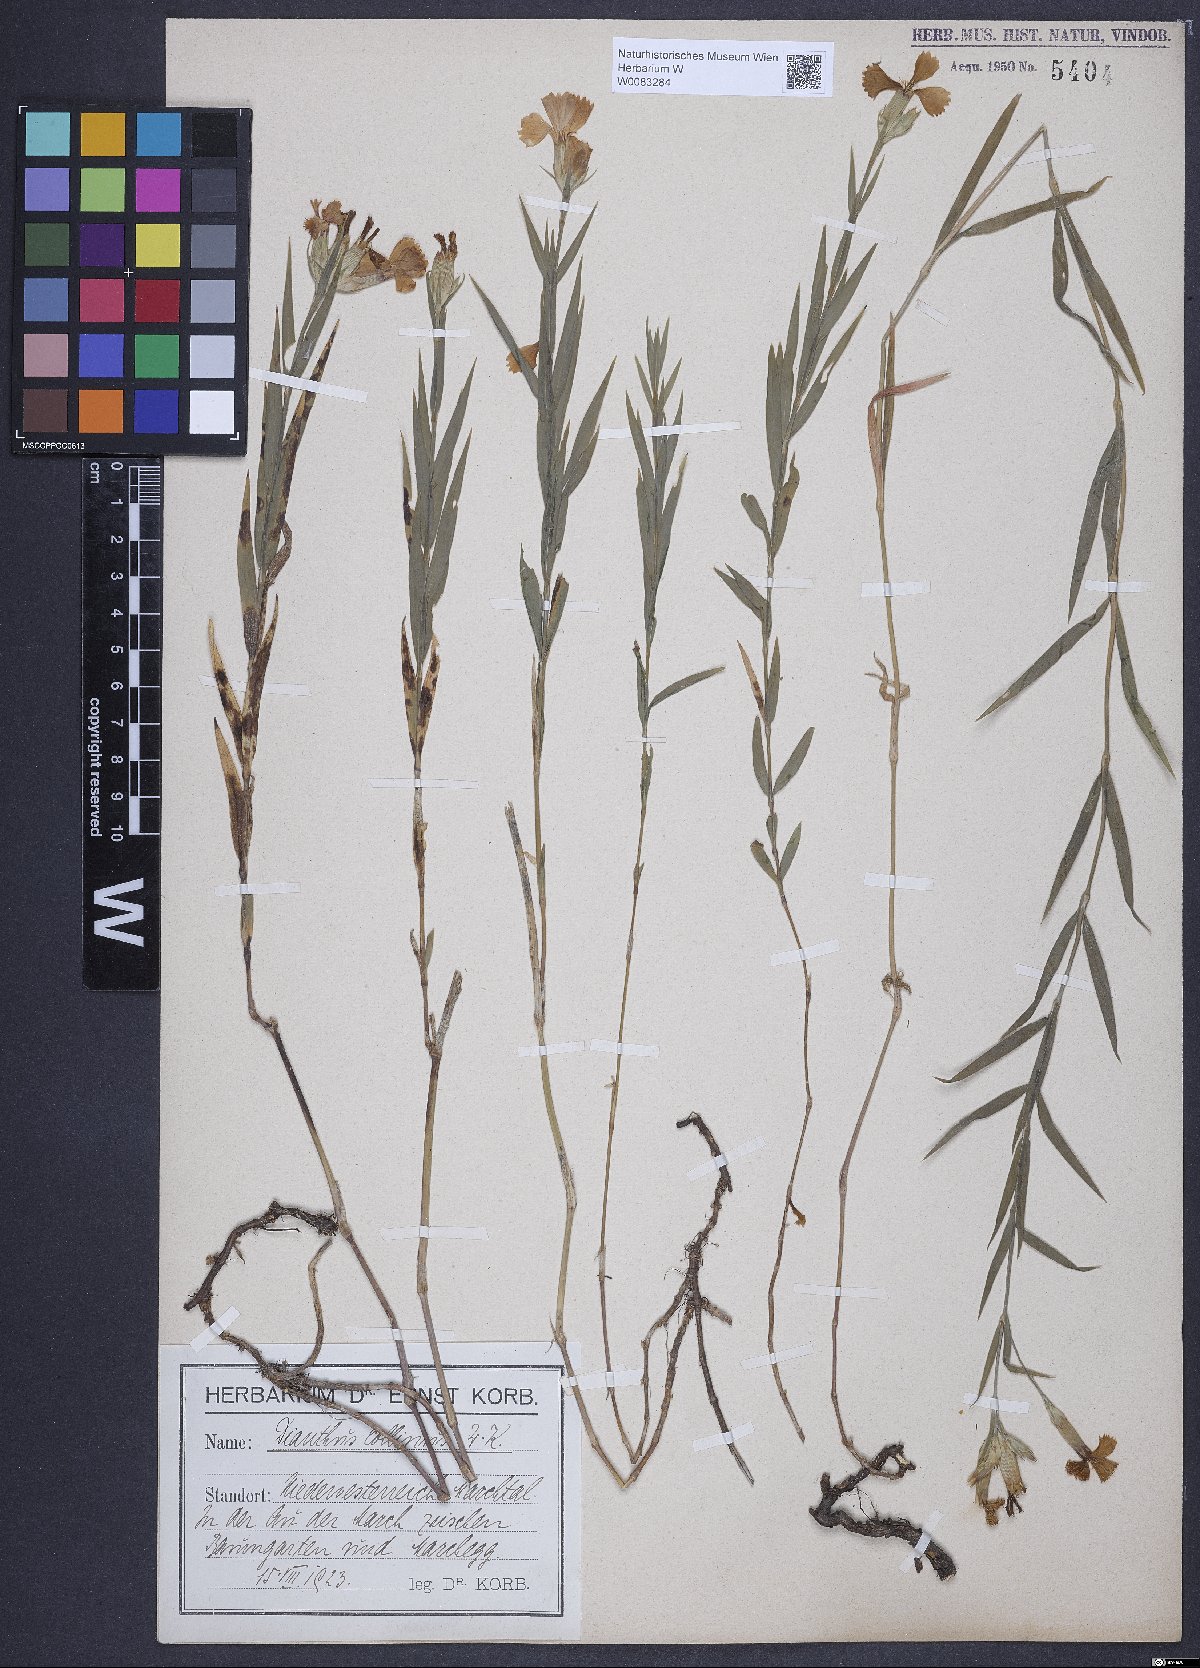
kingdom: Plantae
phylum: Tracheophyta
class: Magnoliopsida
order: Caryophyllales
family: Caryophyllaceae
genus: Dianthus
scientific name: Dianthus collinus
